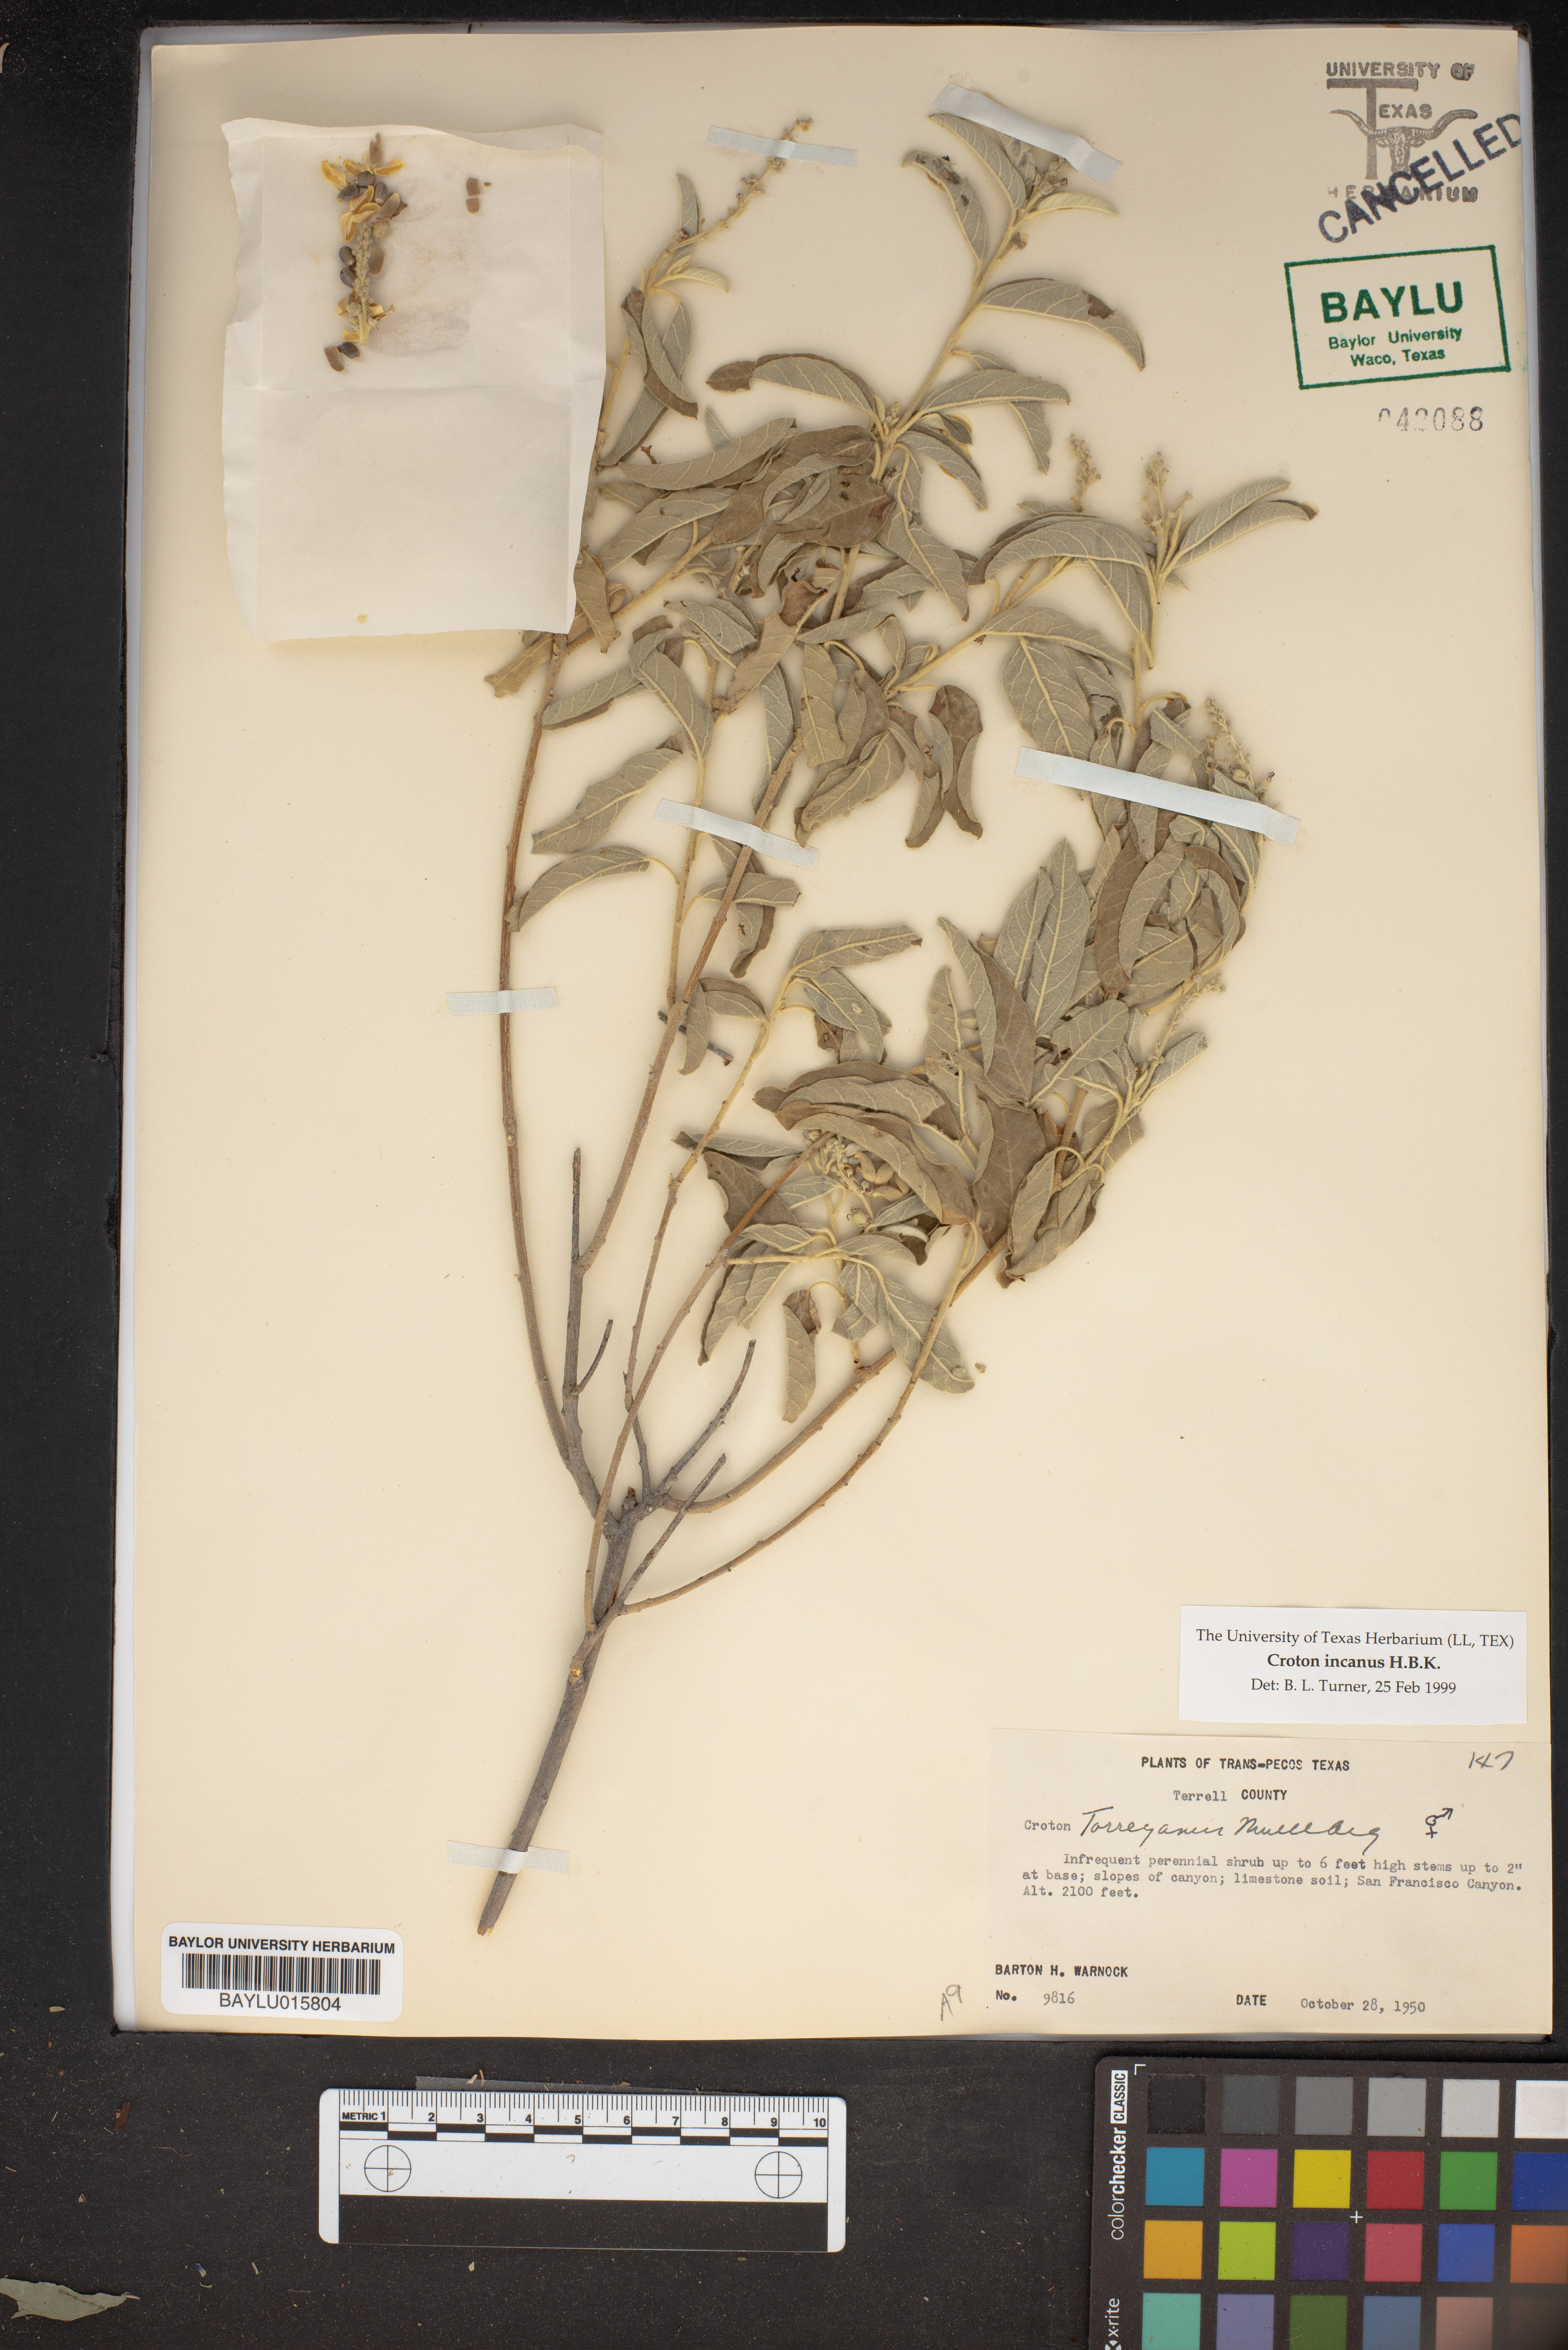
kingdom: Plantae
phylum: Tracheophyta
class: Magnoliopsida
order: Malpighiales
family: Euphorbiaceae
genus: Croton
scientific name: Croton incanus
